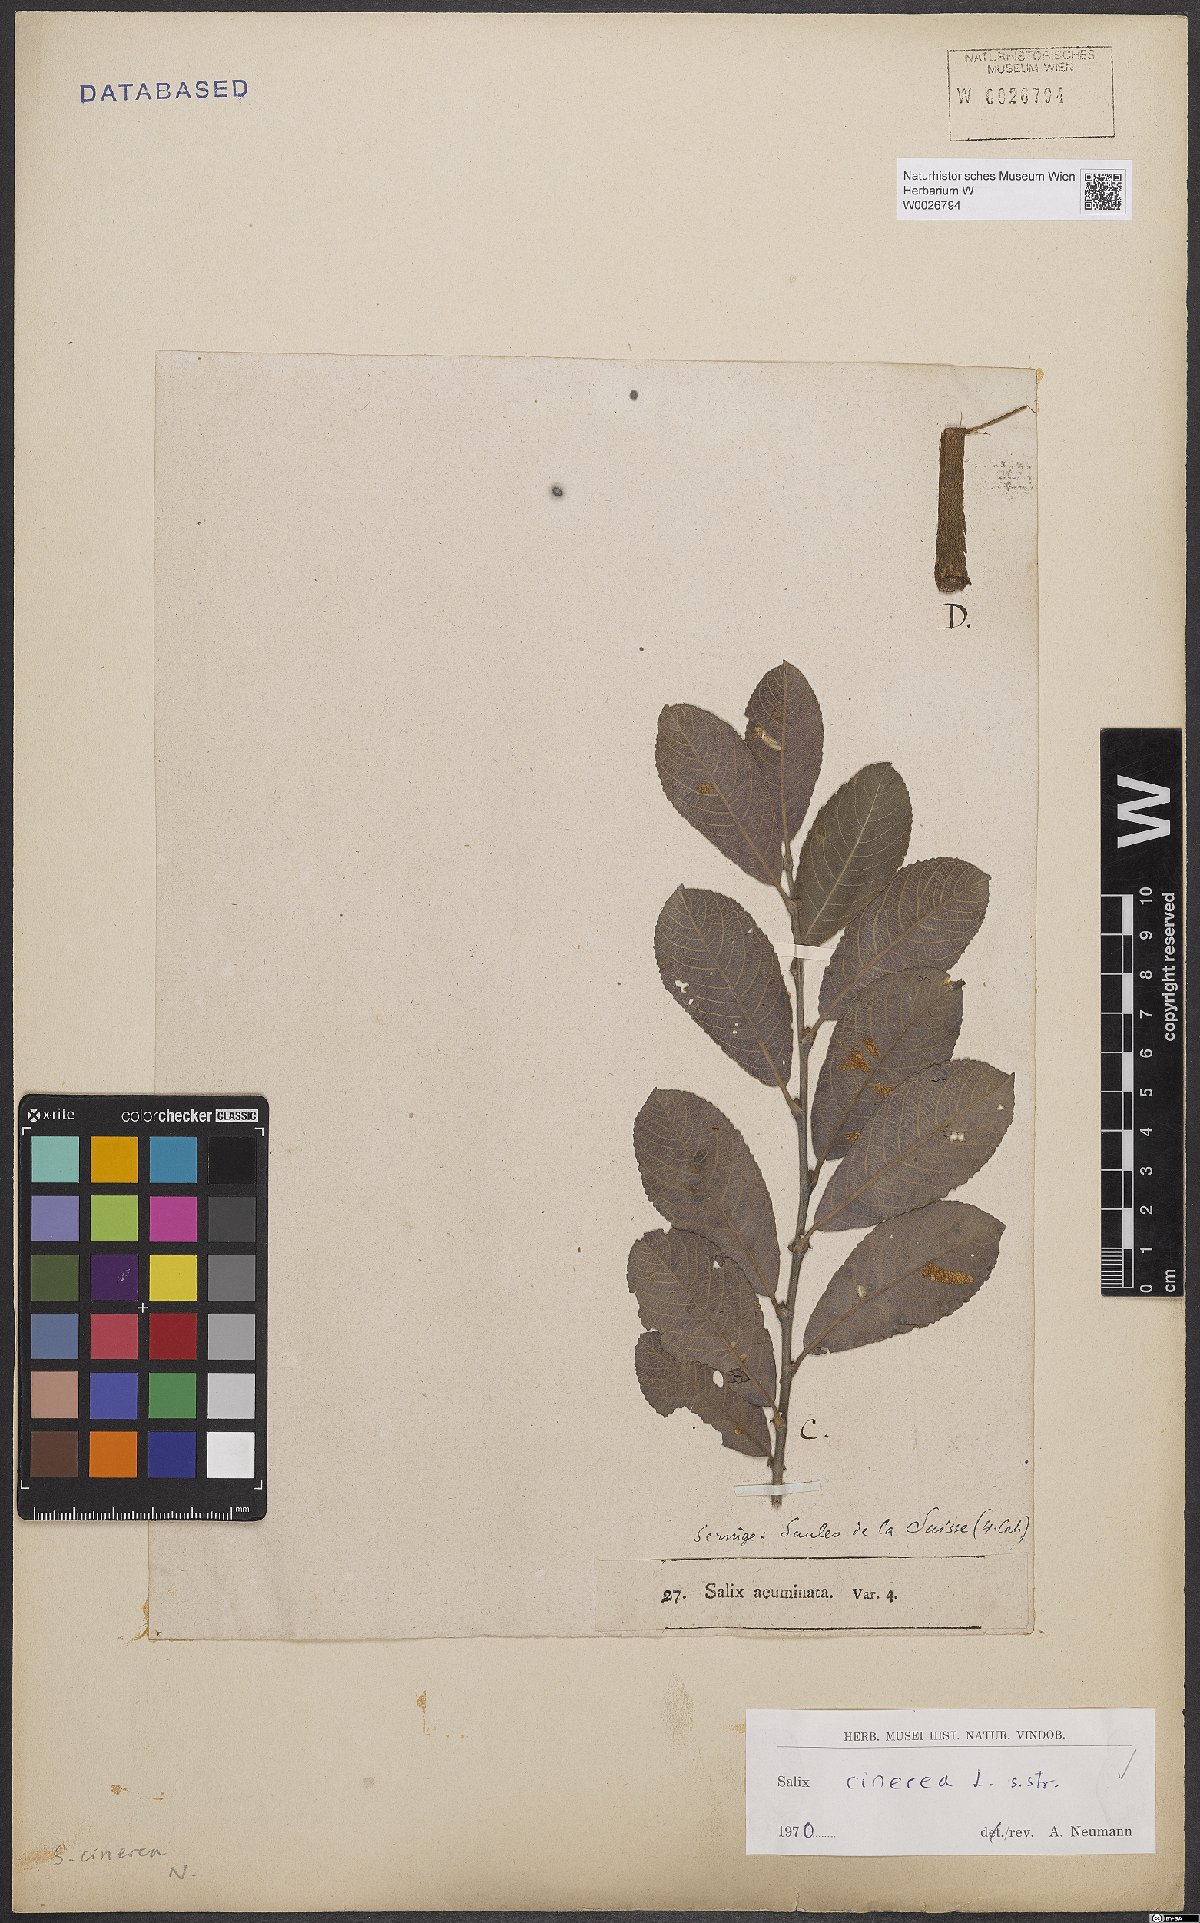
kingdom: Plantae
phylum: Tracheophyta
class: Magnoliopsida
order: Malpighiales
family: Salicaceae
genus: Salix
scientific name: Salix cinerea
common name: Common sallow
